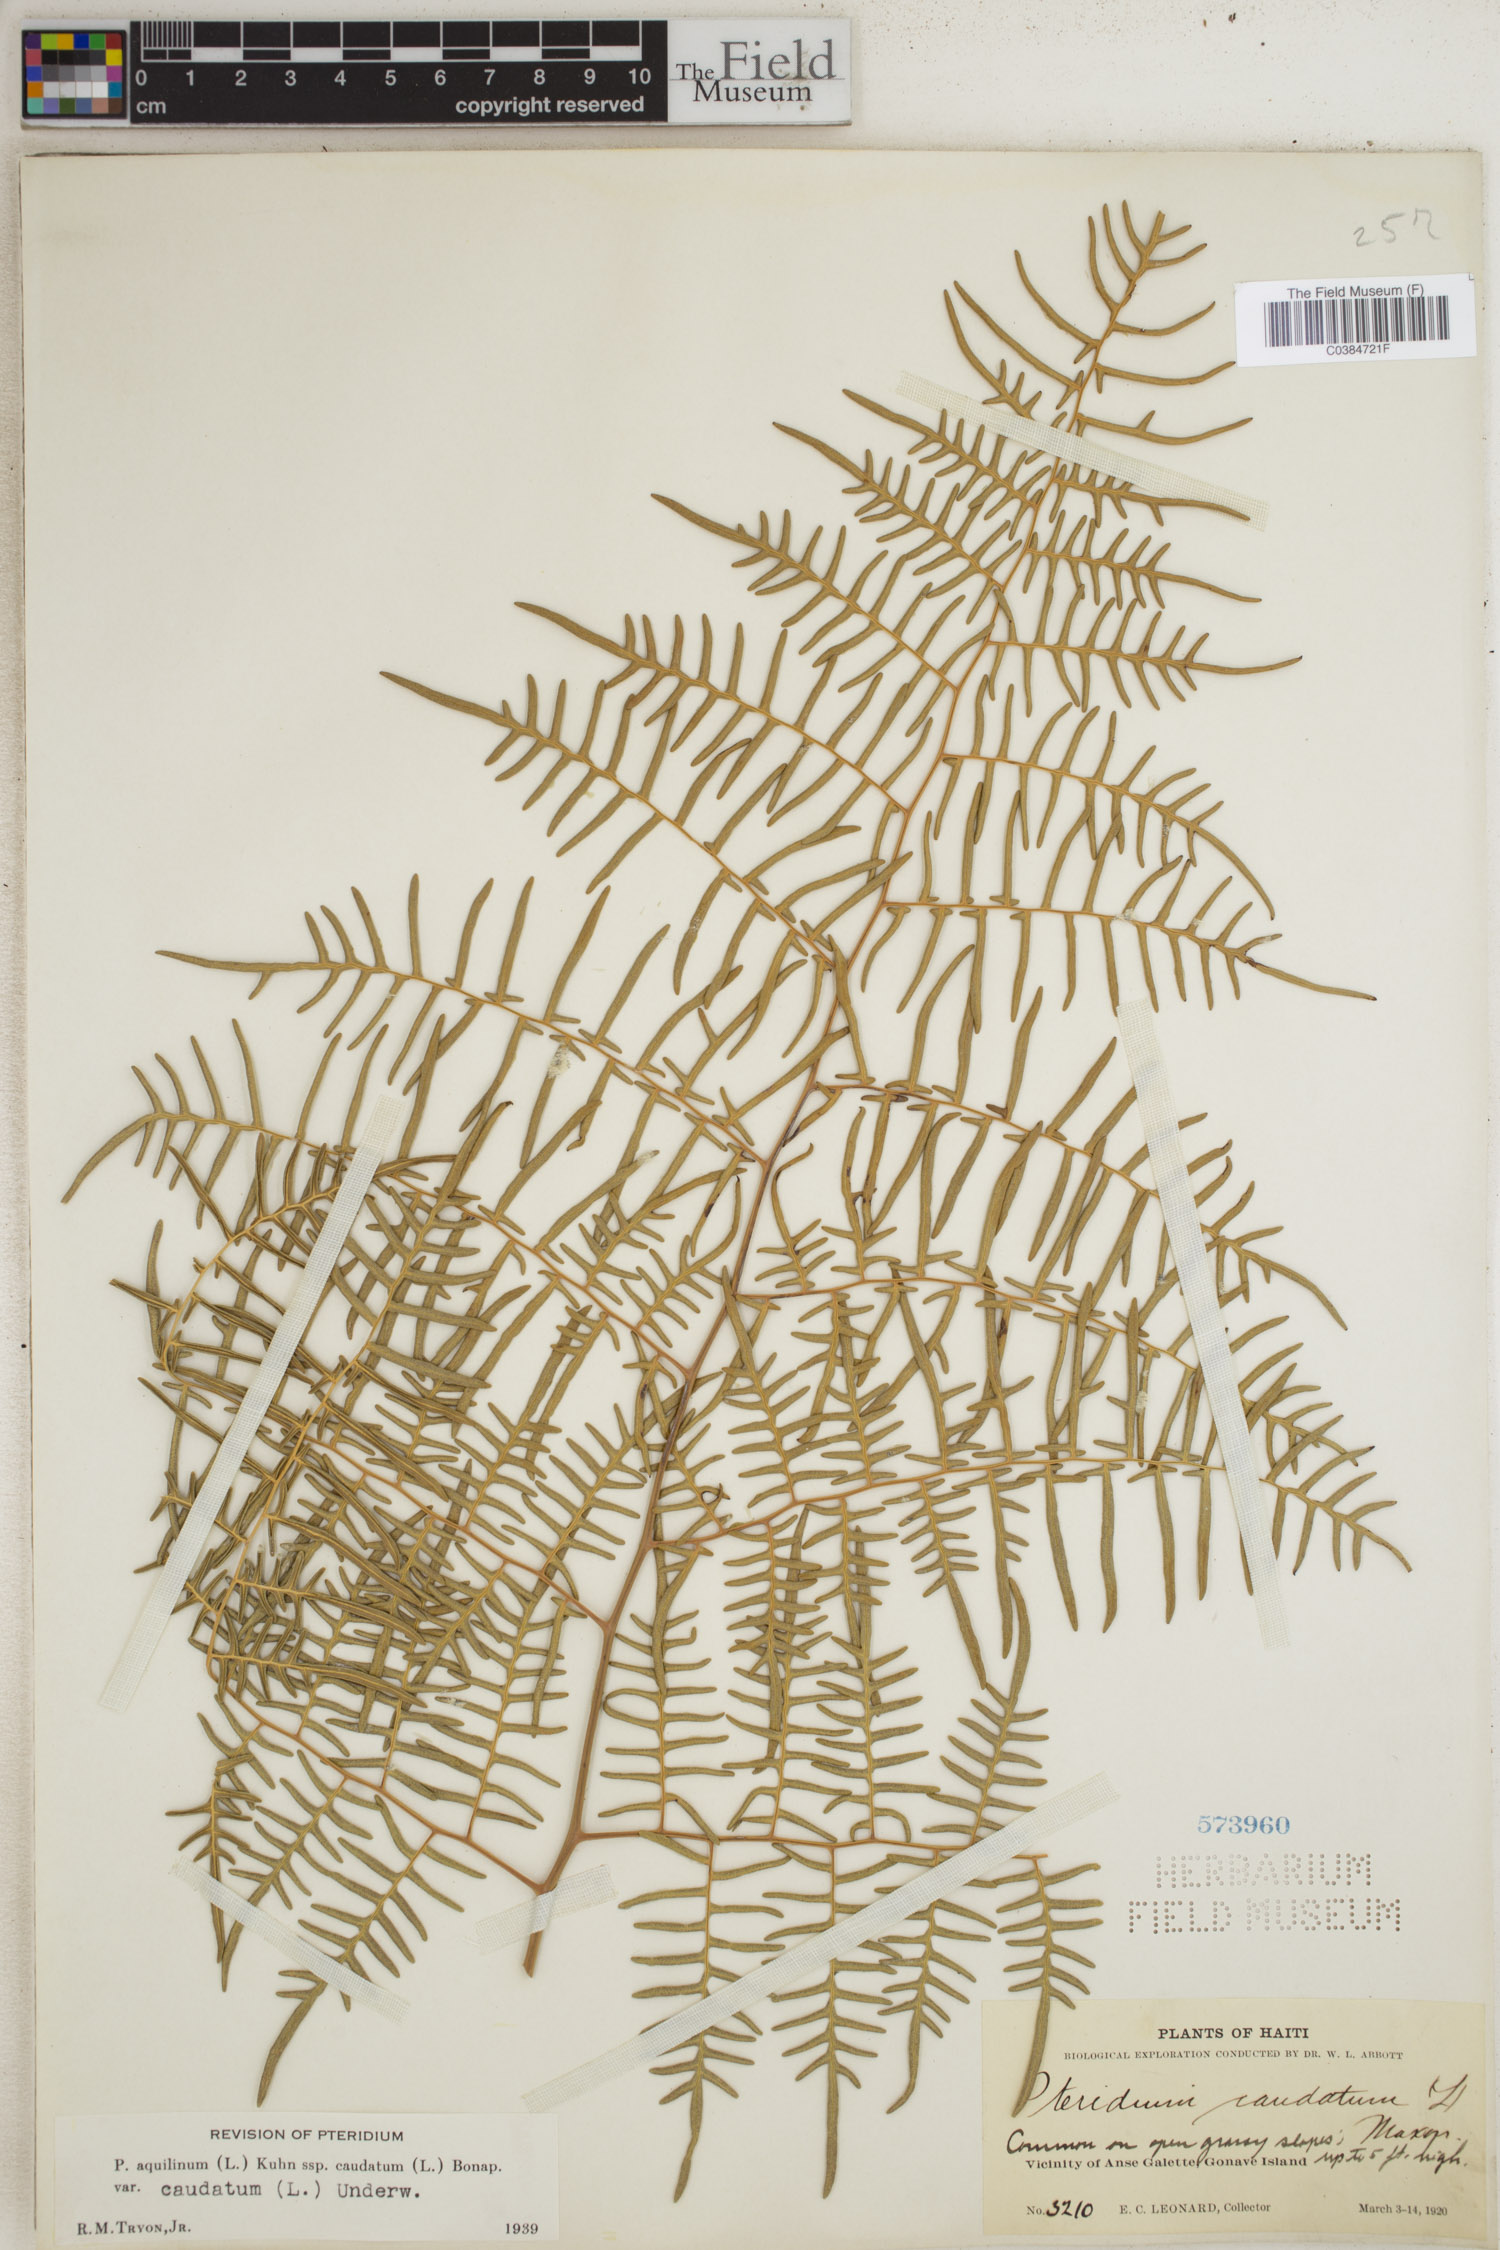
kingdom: Plantae
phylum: Tracheophyta
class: Polypodiopsida
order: Polypodiales
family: Dennstaedtiaceae
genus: Pteridium
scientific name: Pteridium caudatum
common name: Southern bracken fern
